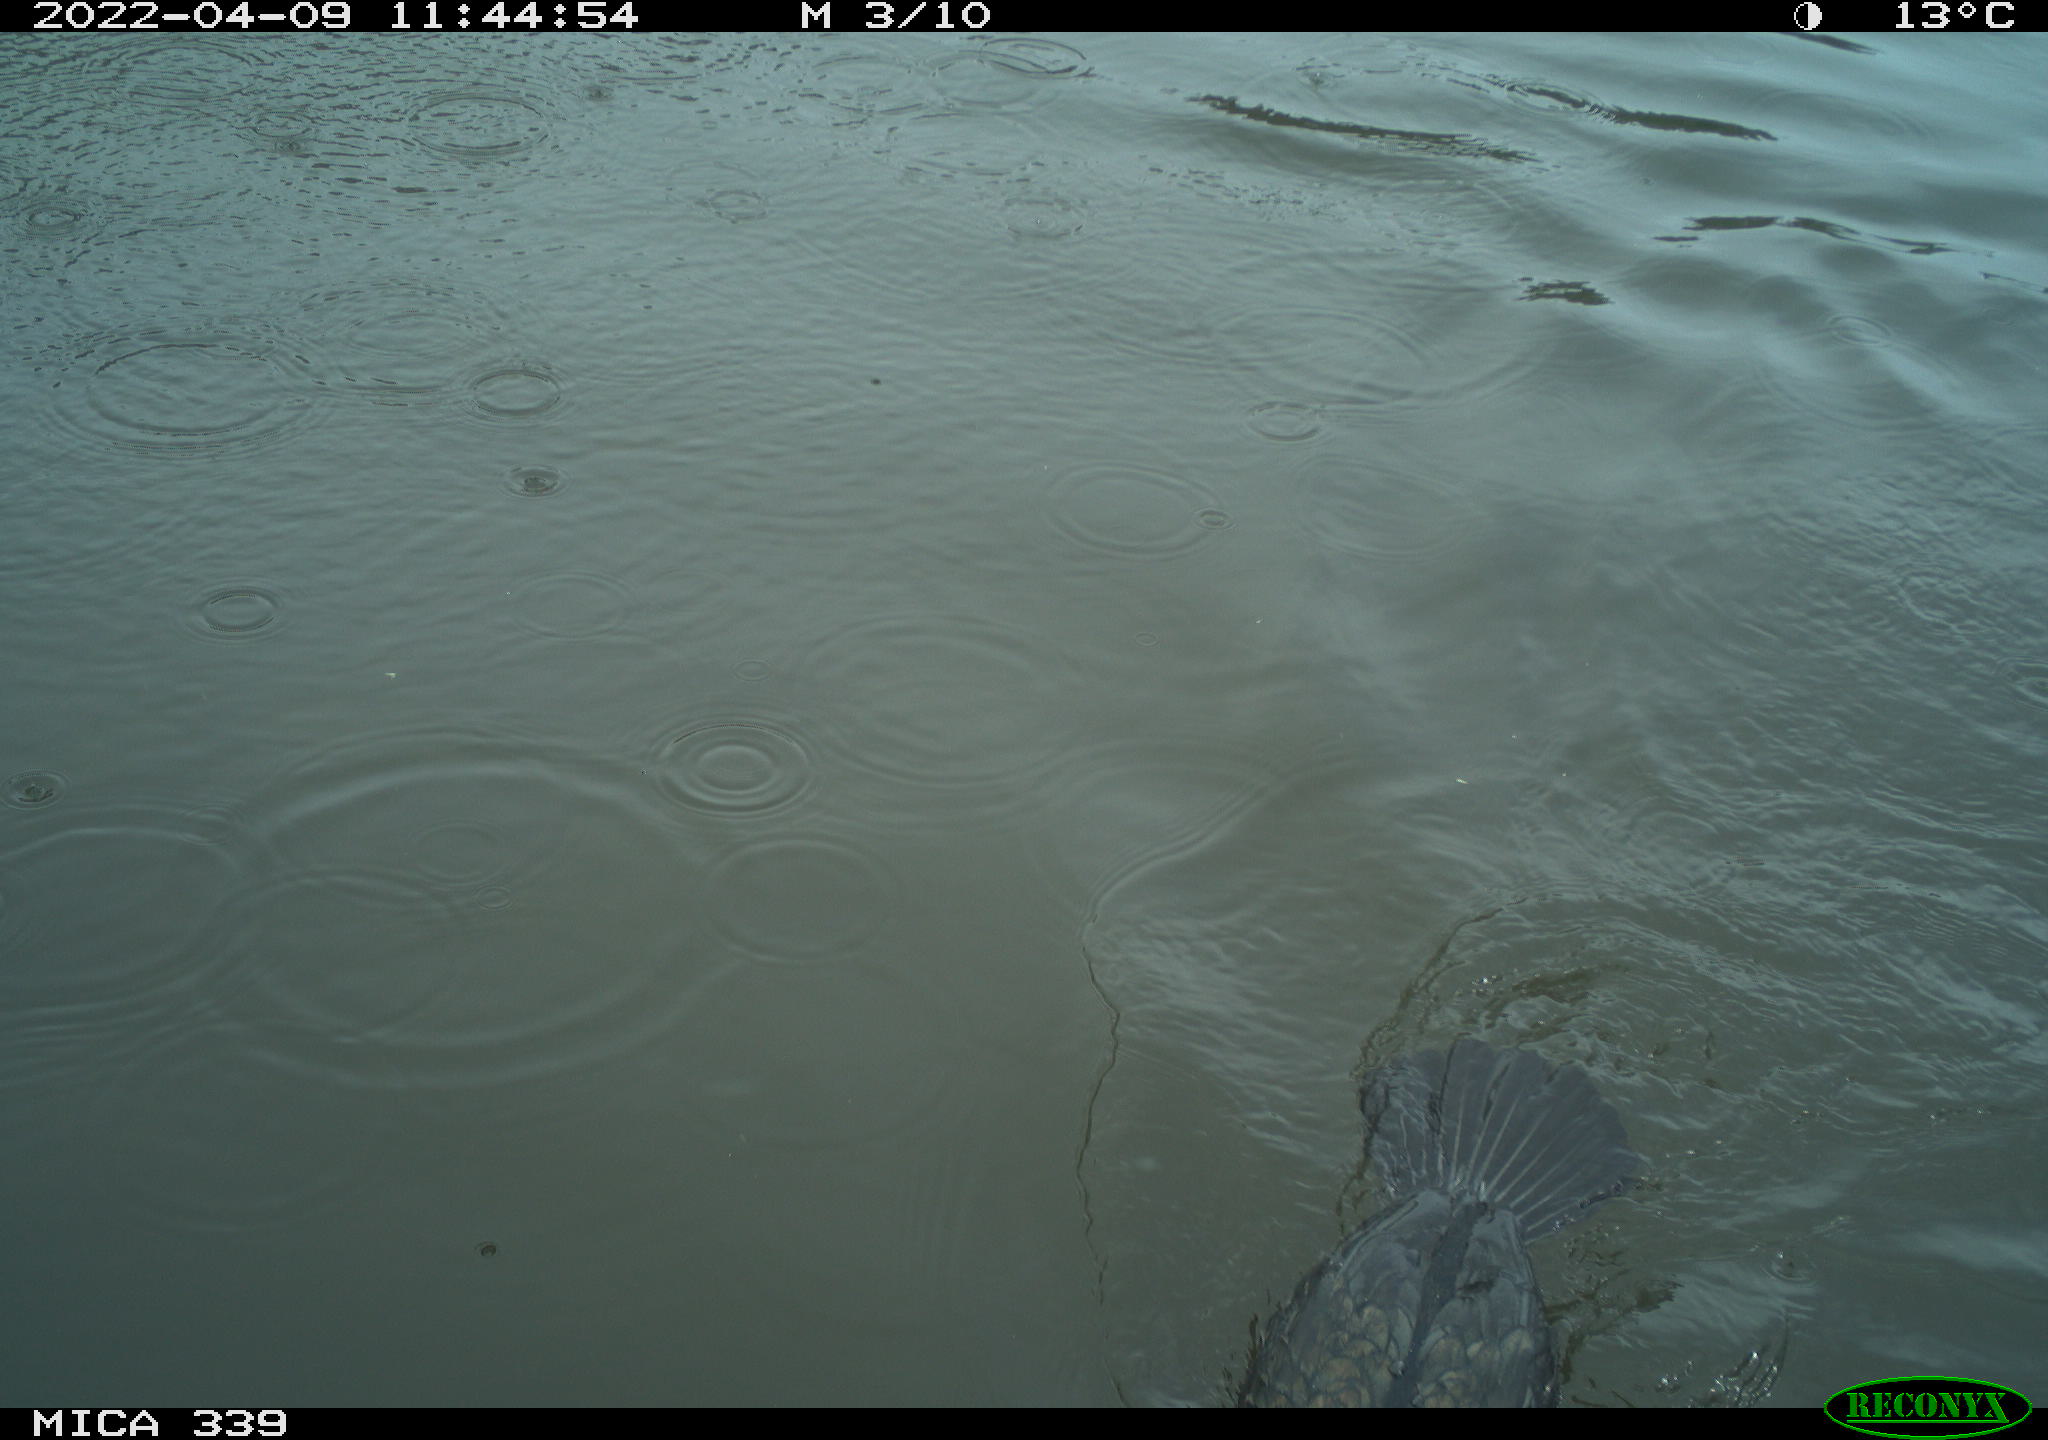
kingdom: Animalia
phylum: Chordata
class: Aves
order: Suliformes
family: Phalacrocoracidae
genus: Phalacrocorax
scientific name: Phalacrocorax carbo
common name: Great cormorant
